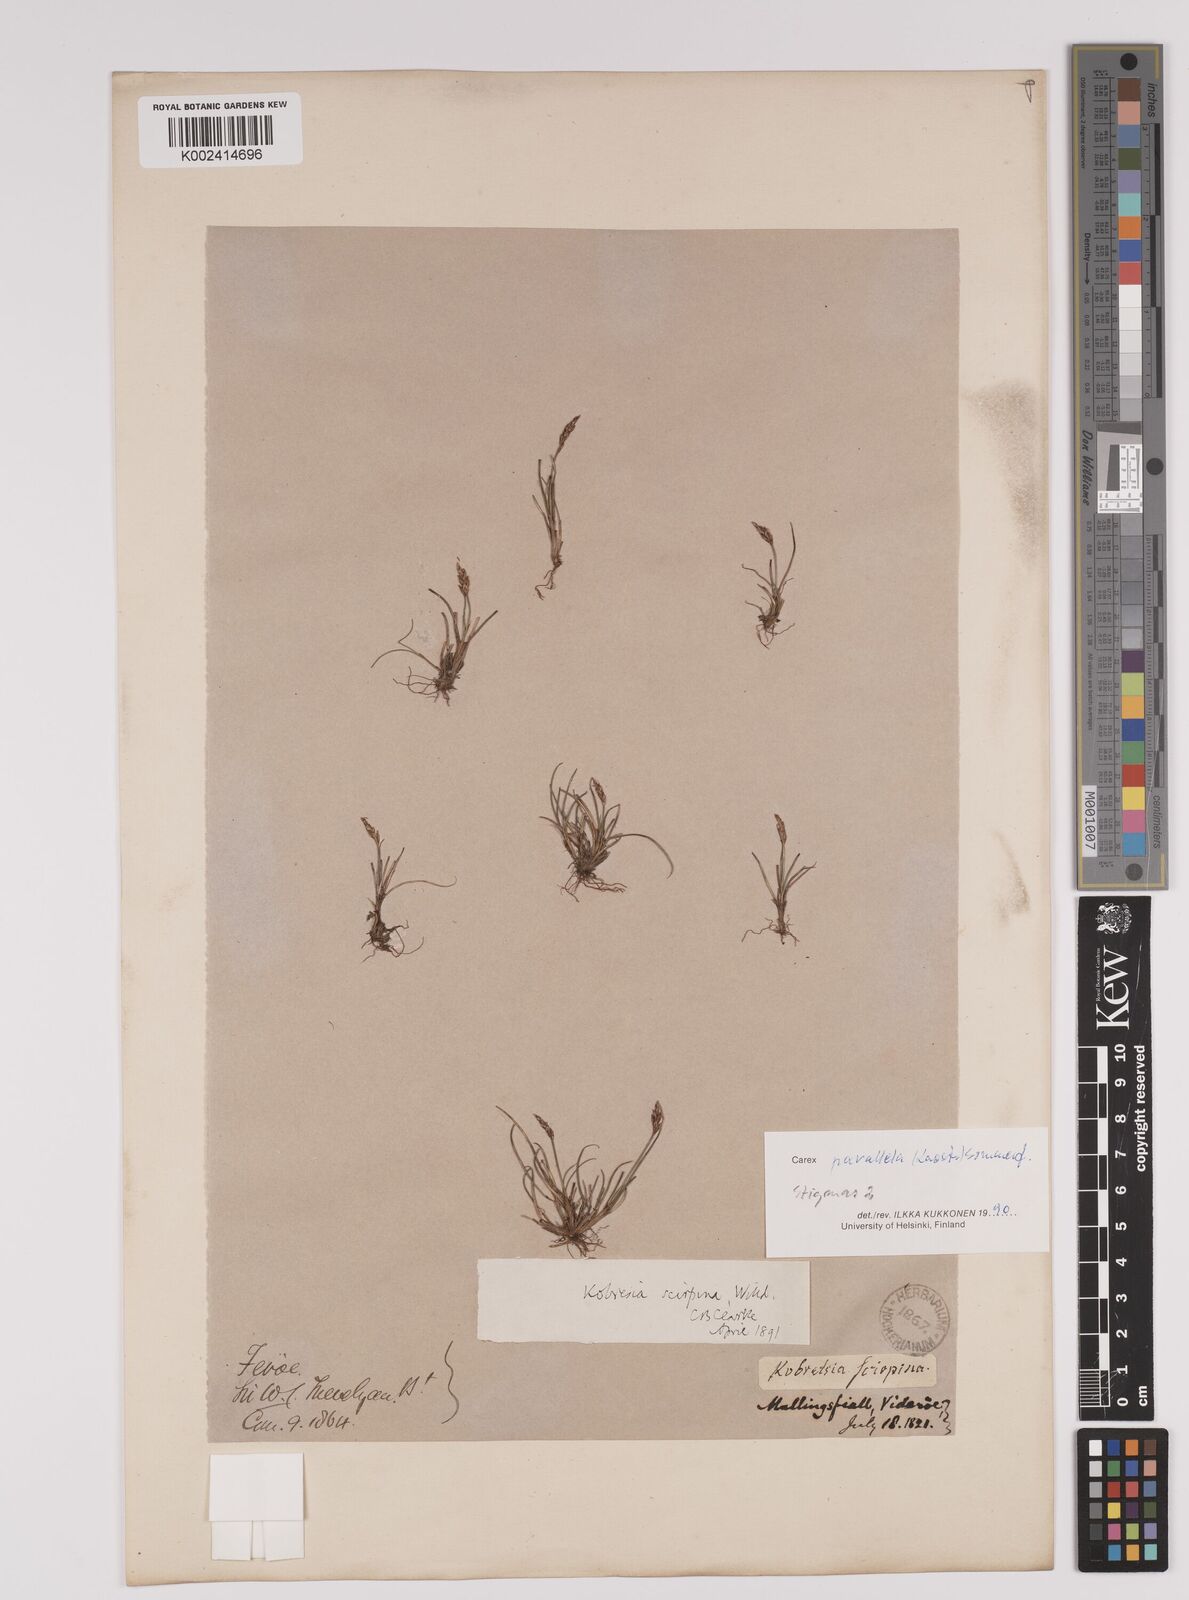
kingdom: Plantae
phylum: Tracheophyta
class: Liliopsida
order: Poales
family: Cyperaceae
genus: Carex
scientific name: Carex parallela
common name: Parallel sedge
